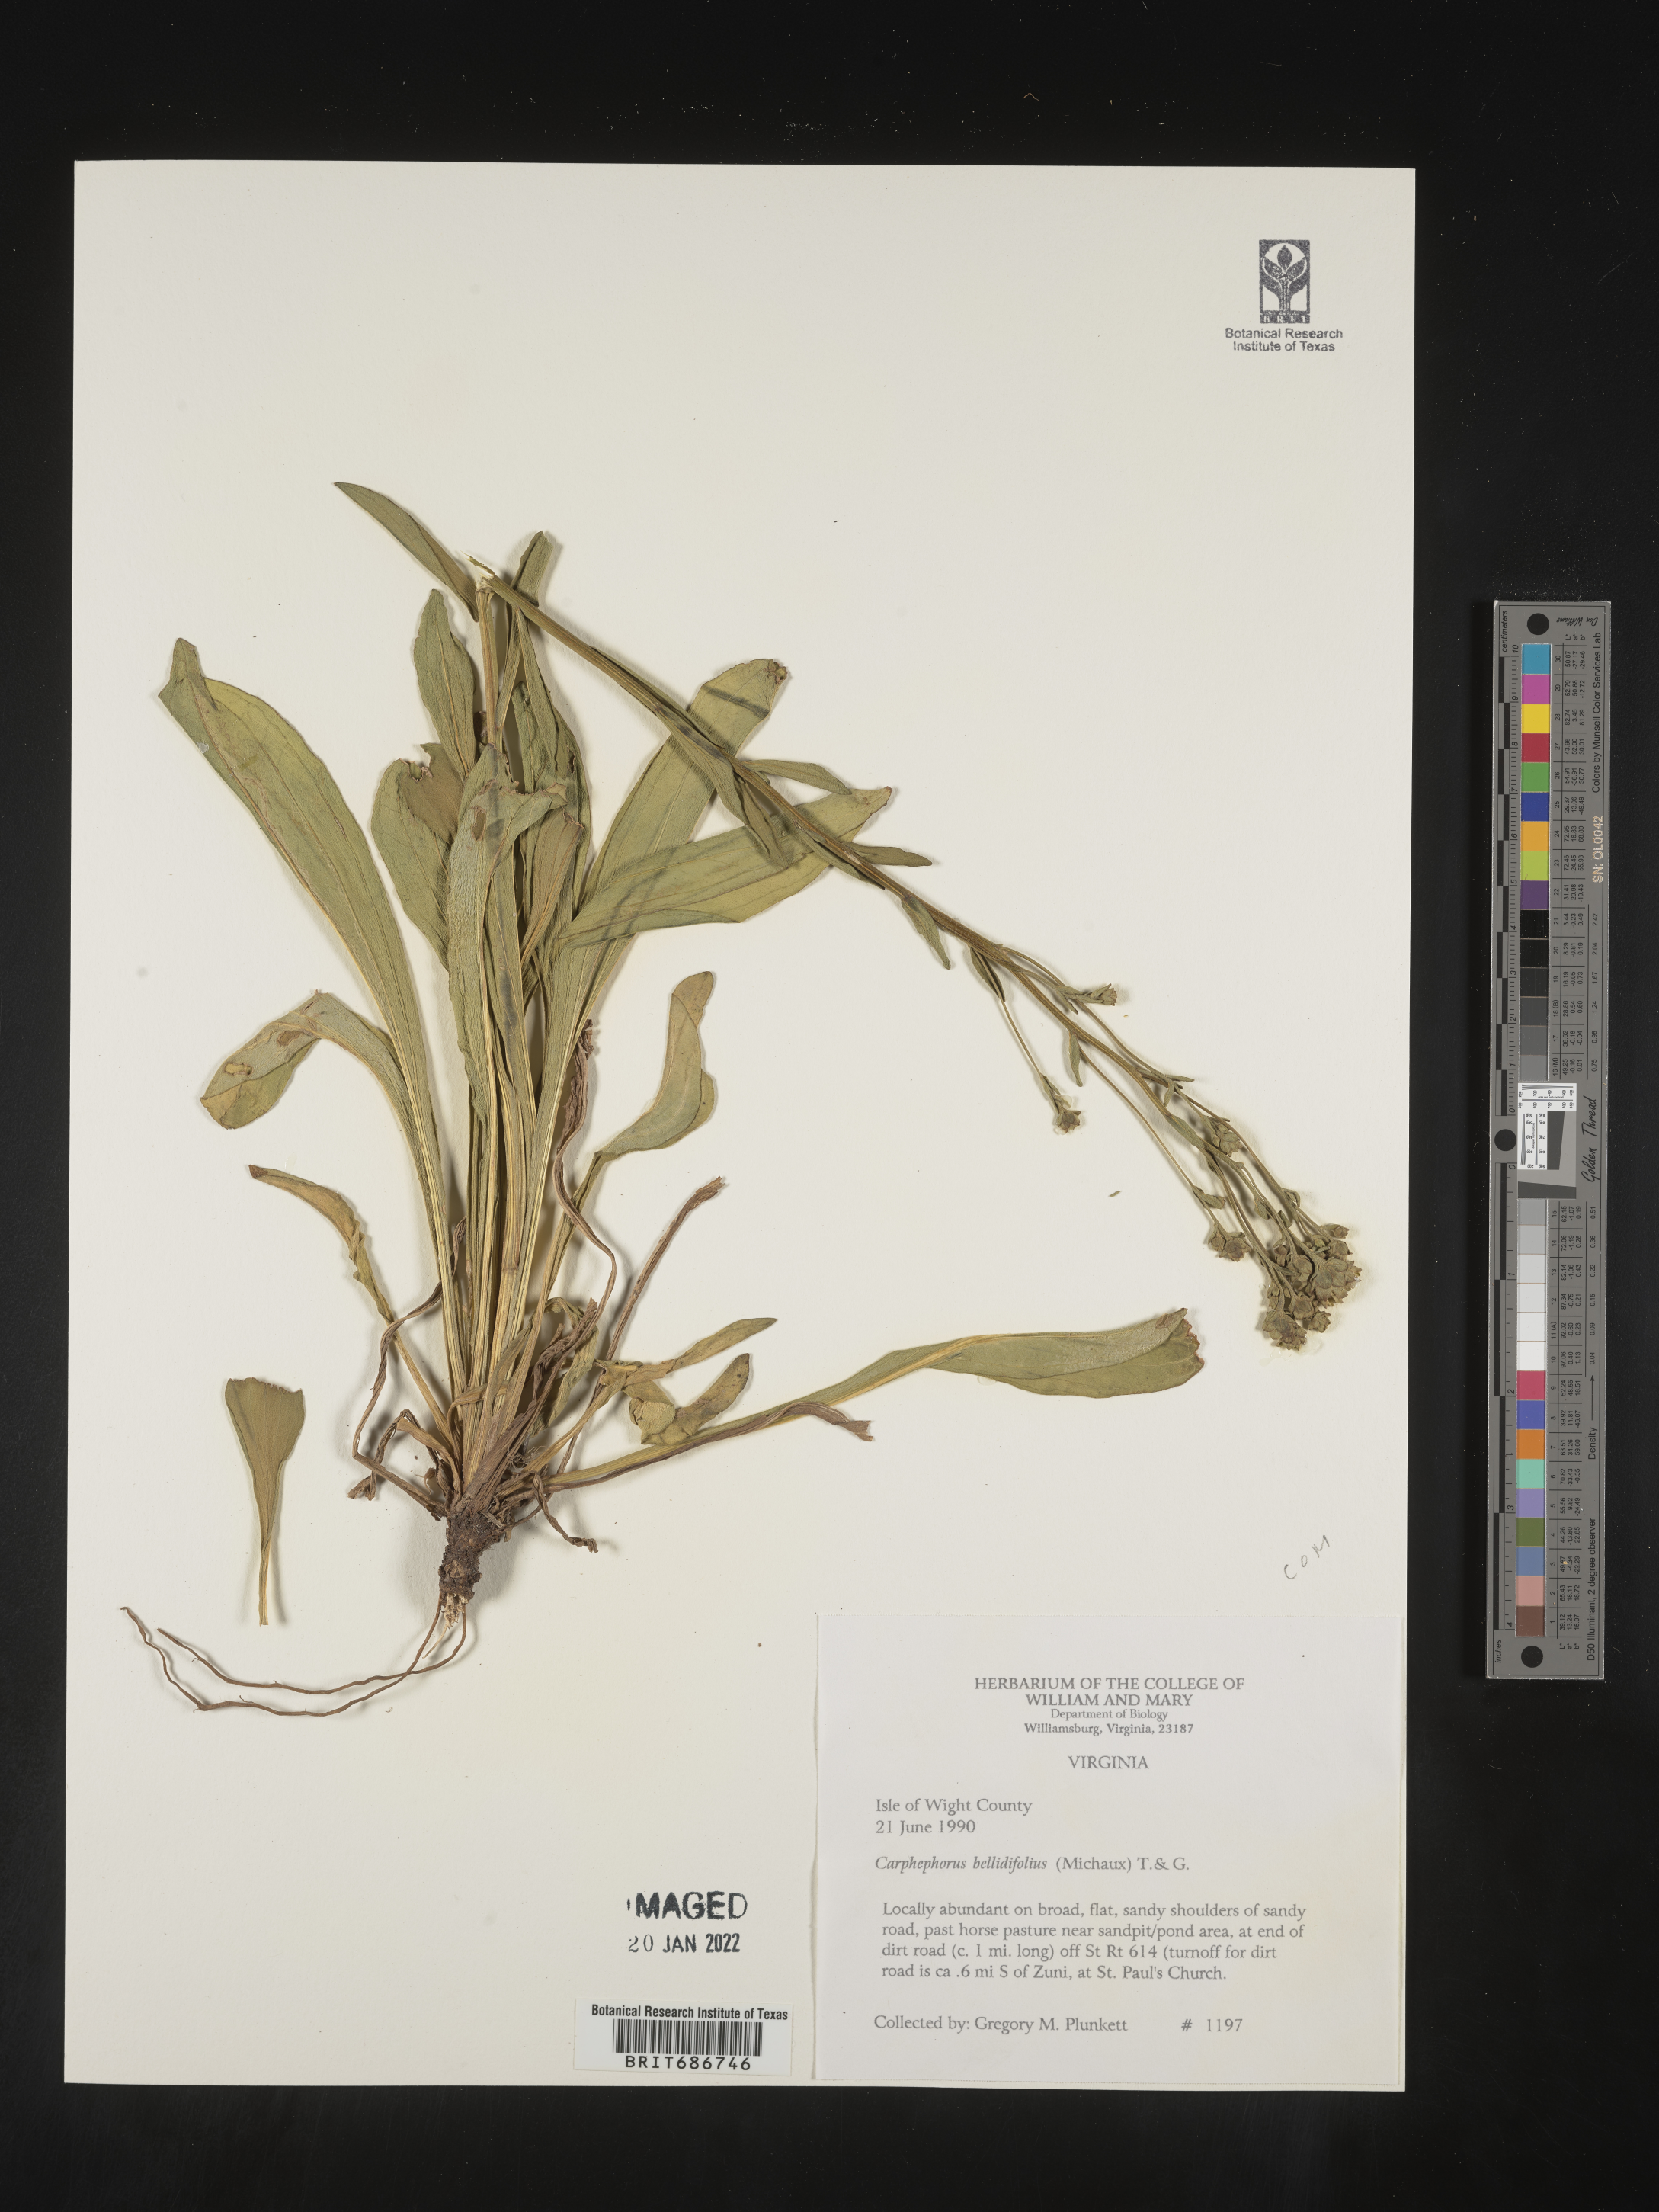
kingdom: Plantae
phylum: Tracheophyta
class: Magnoliopsida
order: Asterales
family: Asteraceae
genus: Carphephorus
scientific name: Carphephorus bellidifolius
